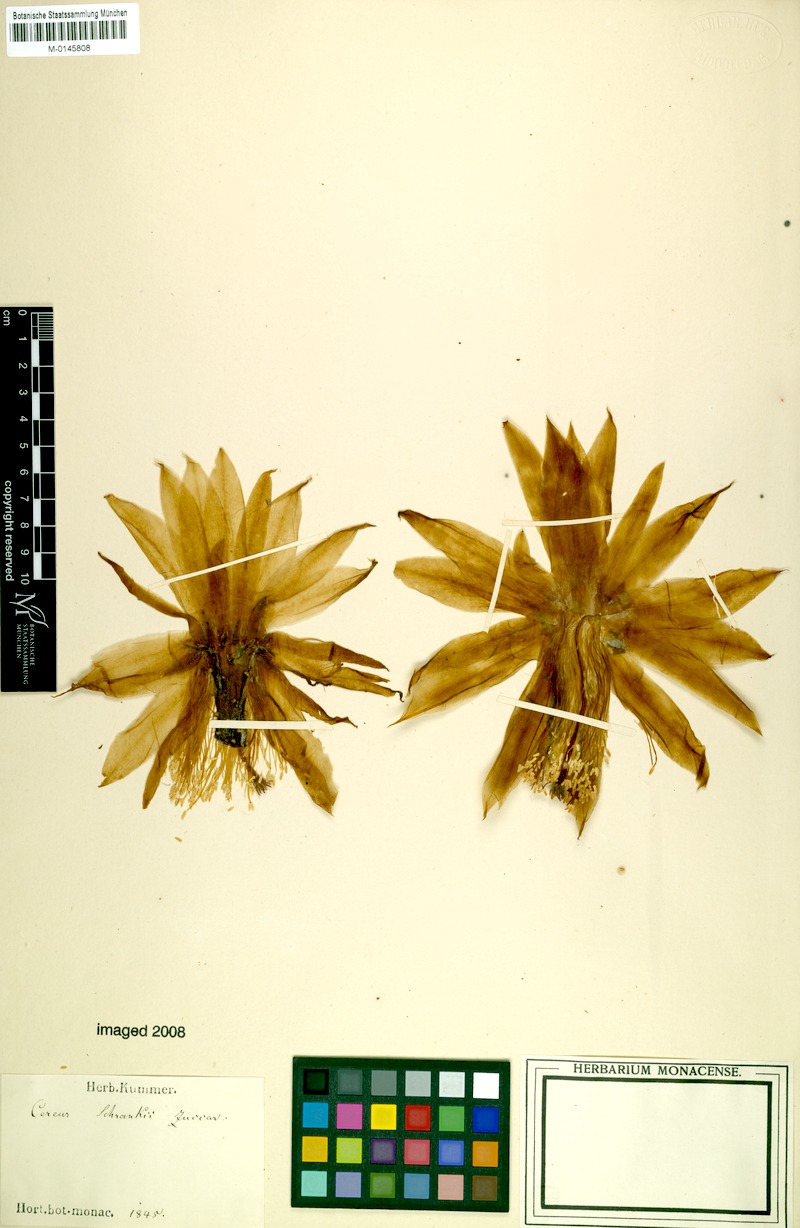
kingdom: Plantae
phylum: Tracheophyta
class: Magnoliopsida
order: Caryophyllales
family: Cactaceae
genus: Disocactus
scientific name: Disocactus speciosus
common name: Sun cereus
